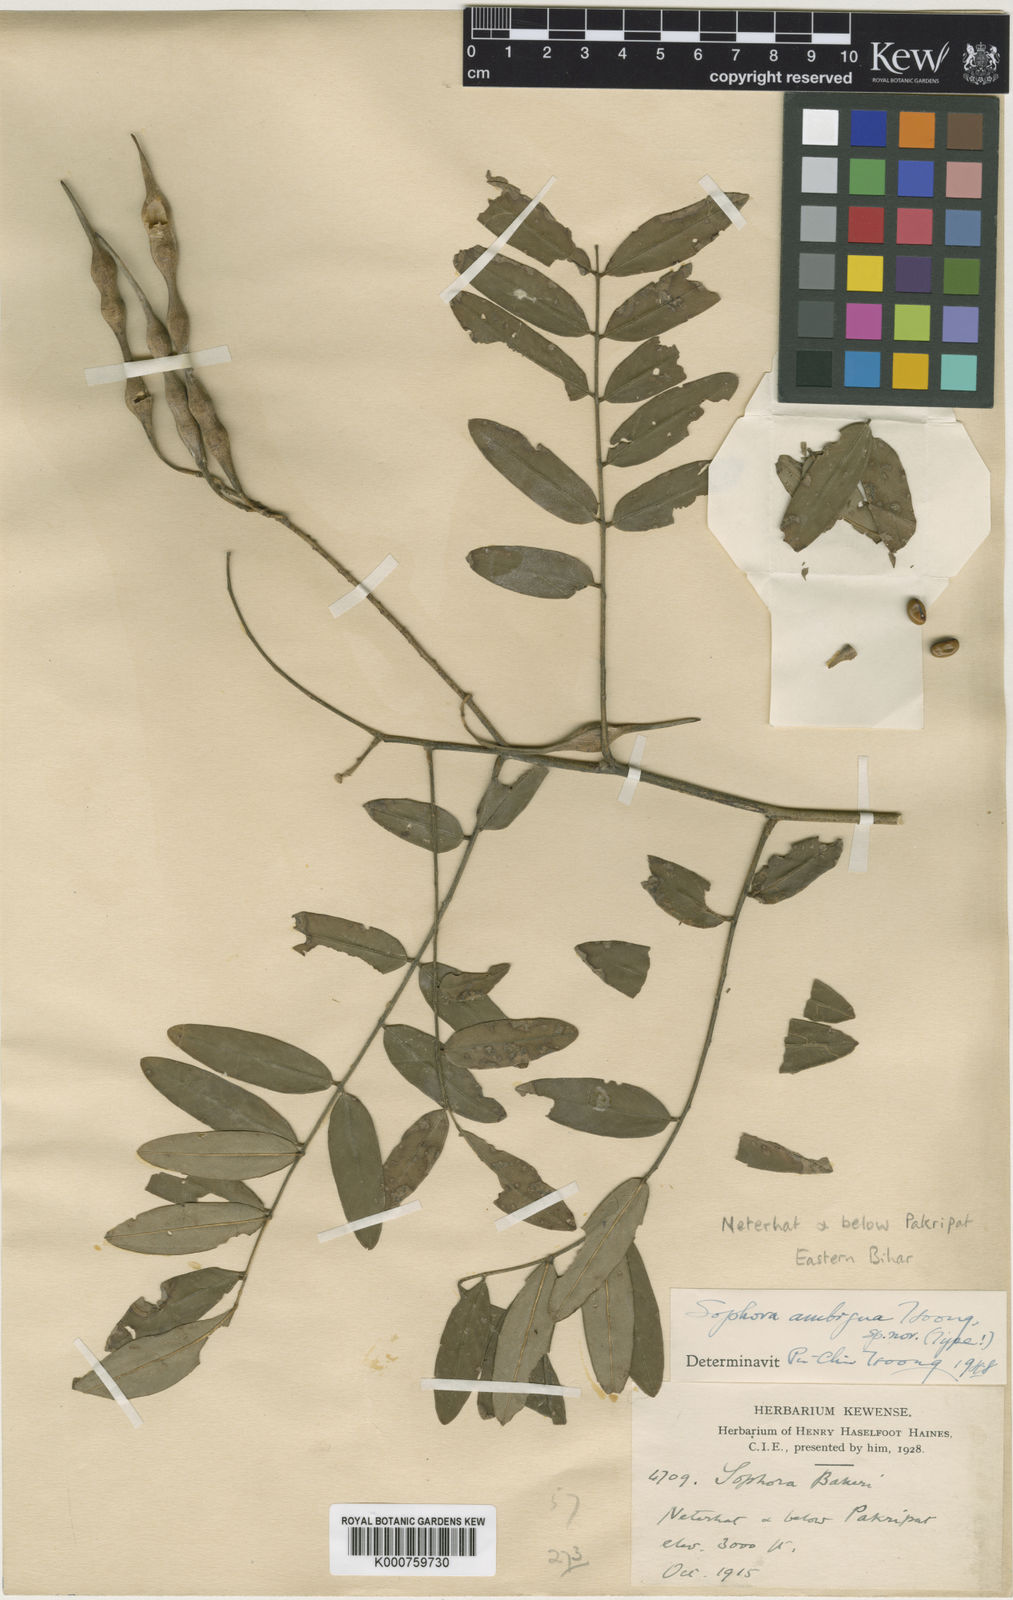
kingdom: Plantae
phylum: Tracheophyta
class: Magnoliopsida
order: Fabales
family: Fabaceae
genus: Sophora
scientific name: Sophora velutina
